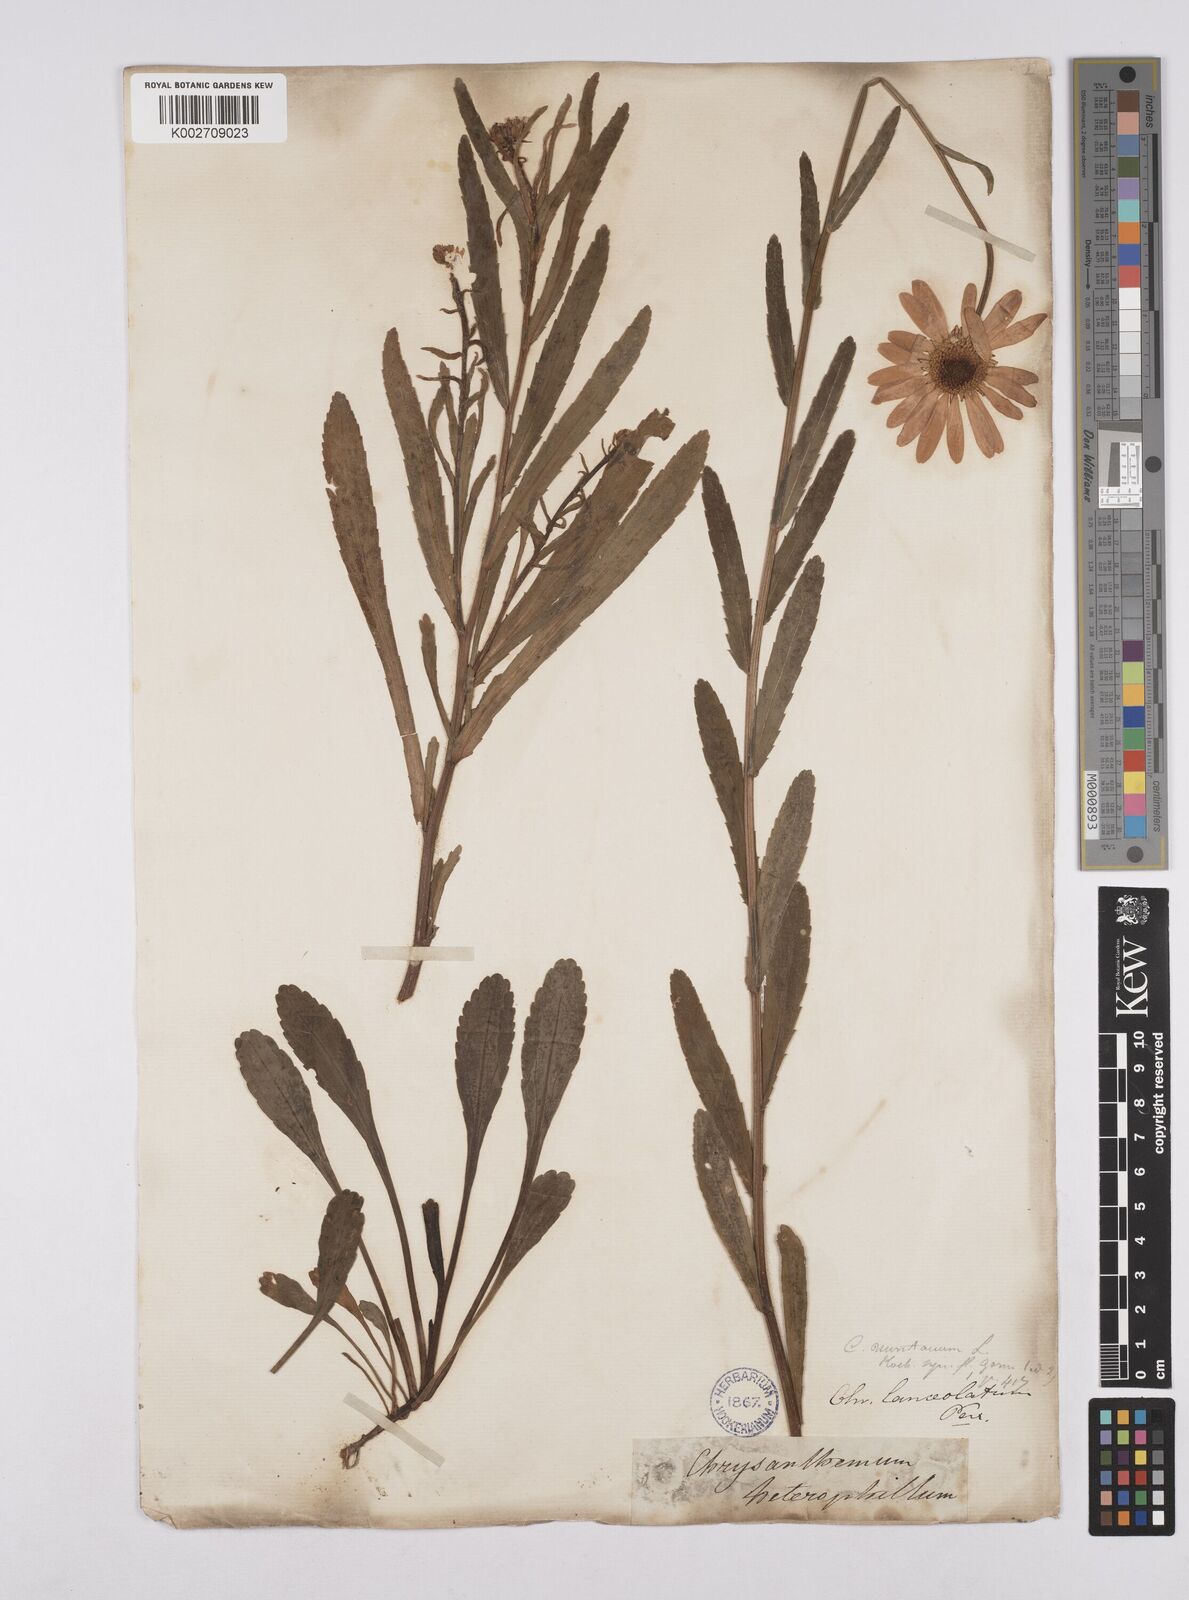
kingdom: Plantae
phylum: Tracheophyta
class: Magnoliopsida
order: Asterales
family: Asteraceae
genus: Leucanthemum
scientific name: Leucanthemum heterophyllum
